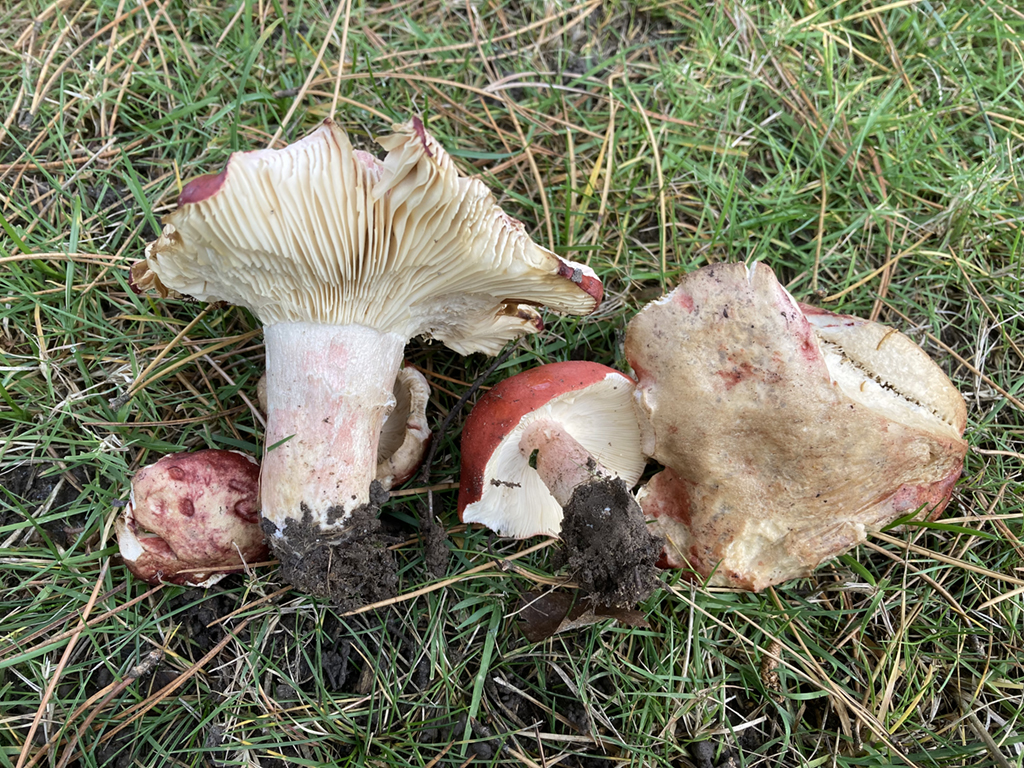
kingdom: Fungi
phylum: Basidiomycota
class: Agaricomycetes
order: Russulales
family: Russulaceae
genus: Russula
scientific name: Russula sanguinea
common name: blodrød skørhat
